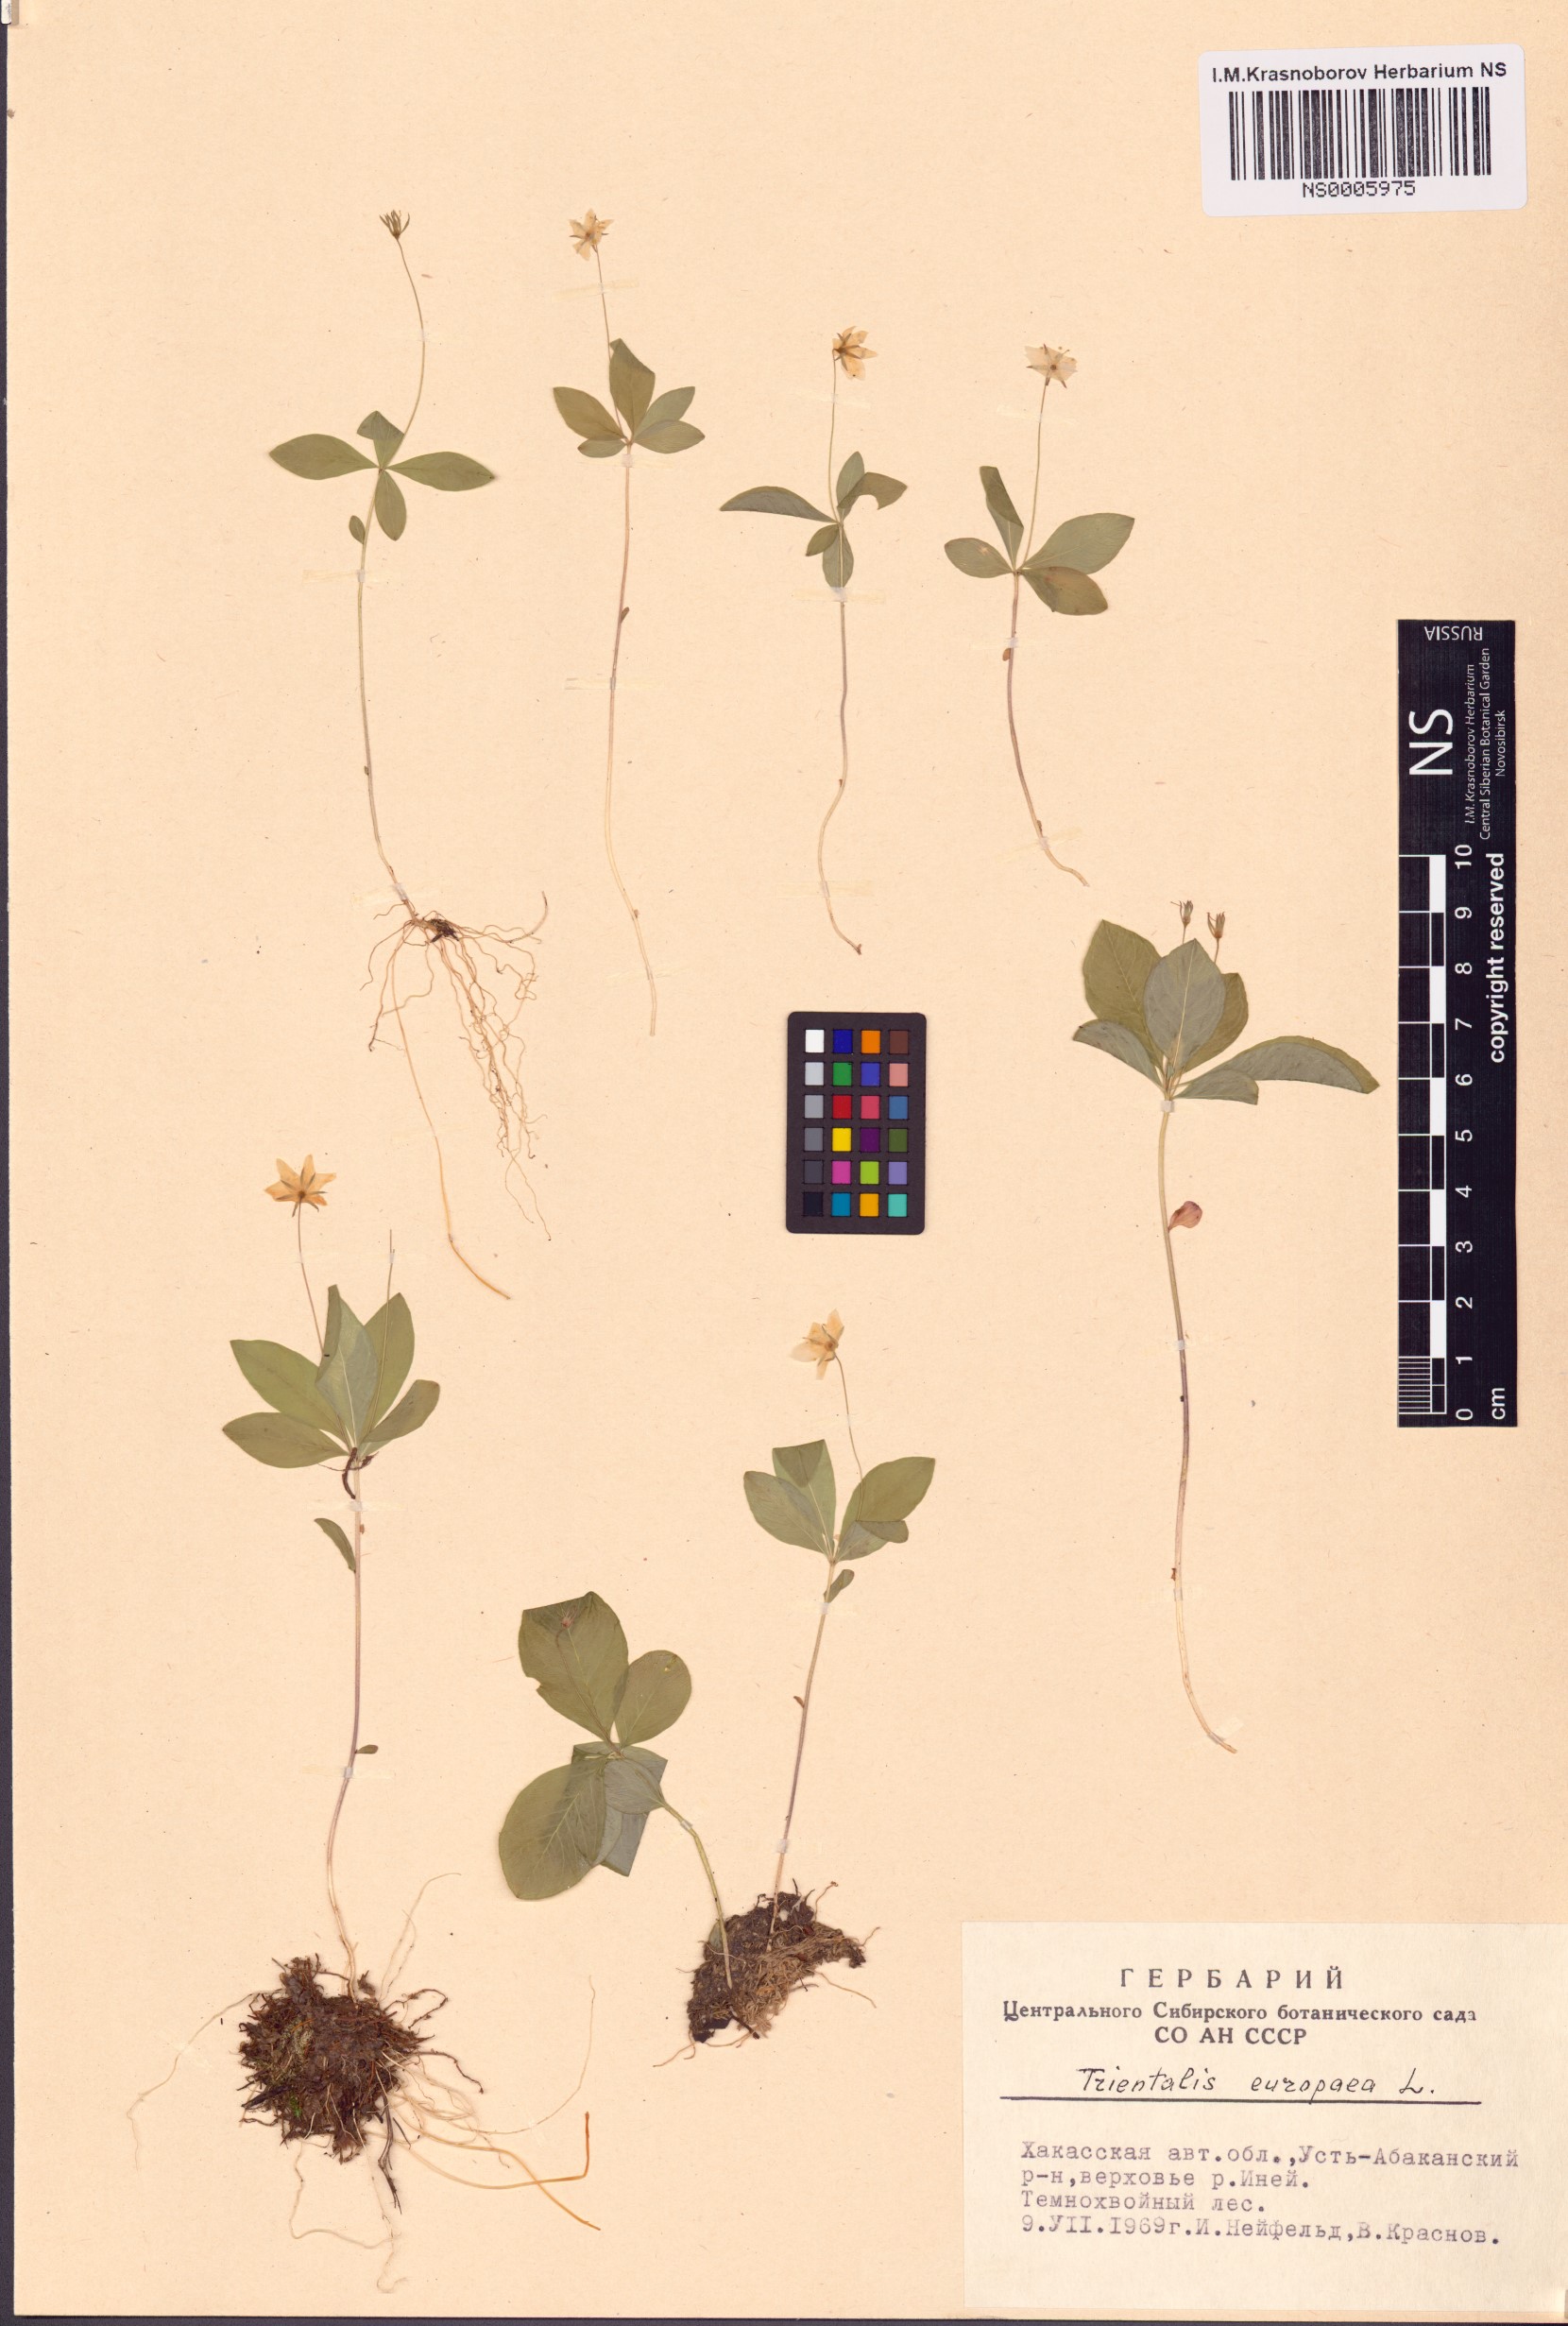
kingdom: Plantae
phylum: Tracheophyta
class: Magnoliopsida
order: Ericales
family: Primulaceae
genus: Lysimachia
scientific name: Lysimachia europaea
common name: Arctic starflower
